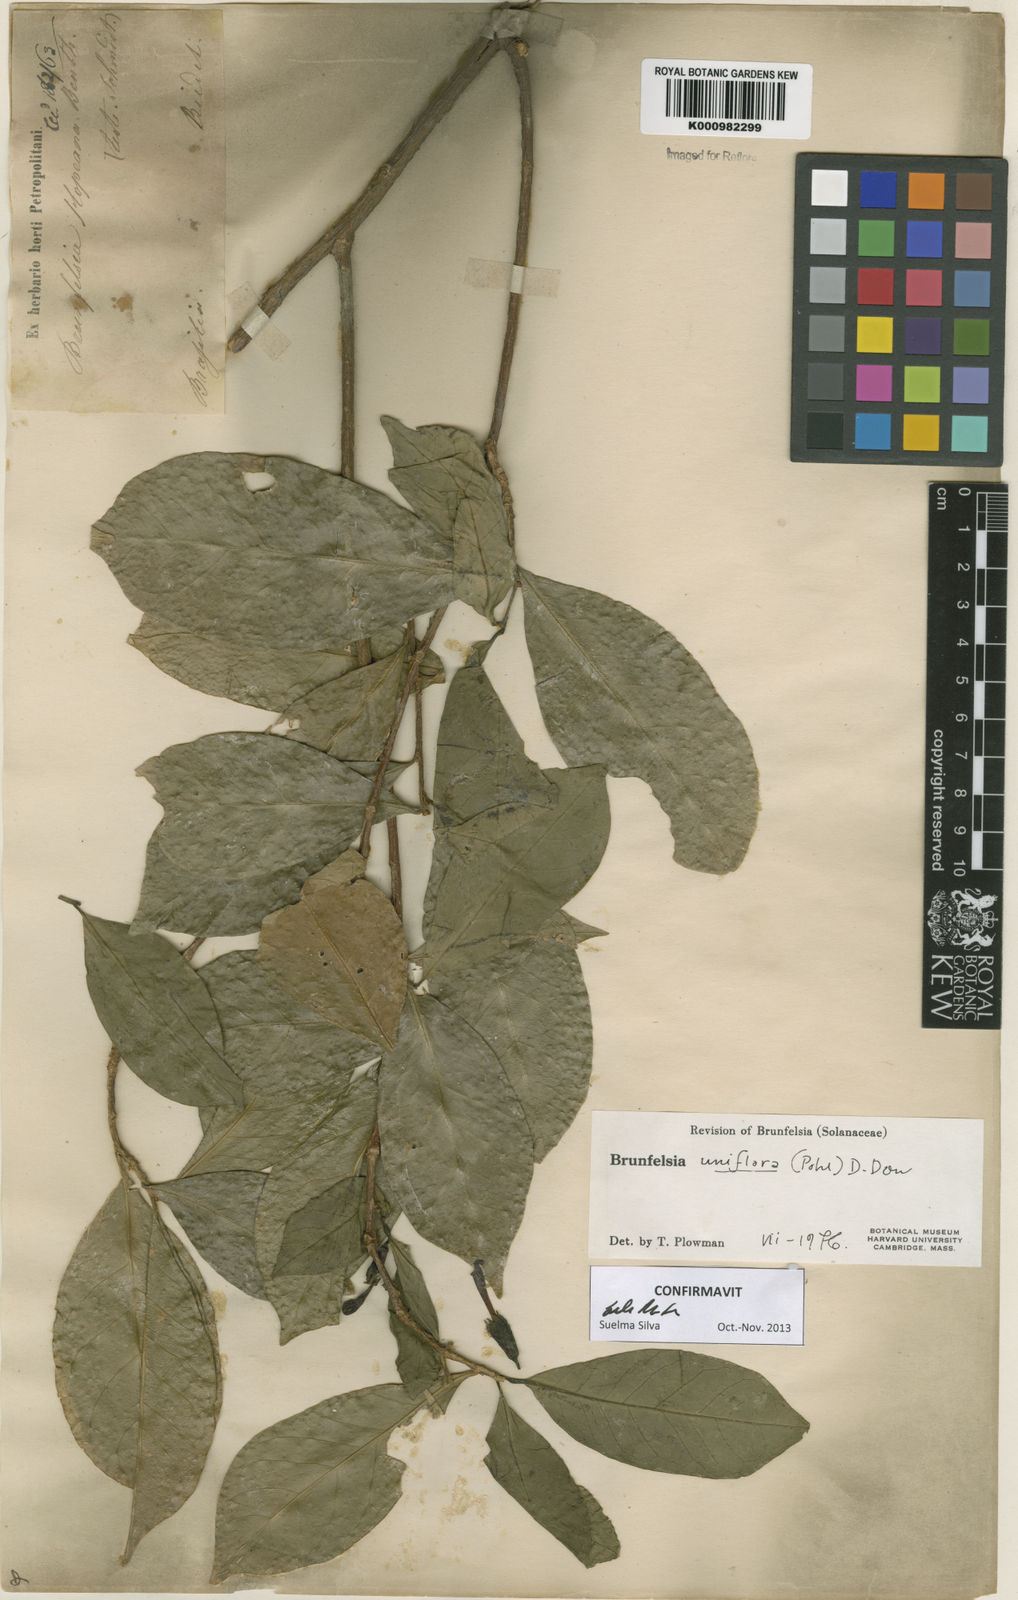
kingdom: Plantae
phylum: Tracheophyta
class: Magnoliopsida
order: Solanales
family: Solanaceae
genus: Brunfelsia
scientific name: Brunfelsia uniflora
